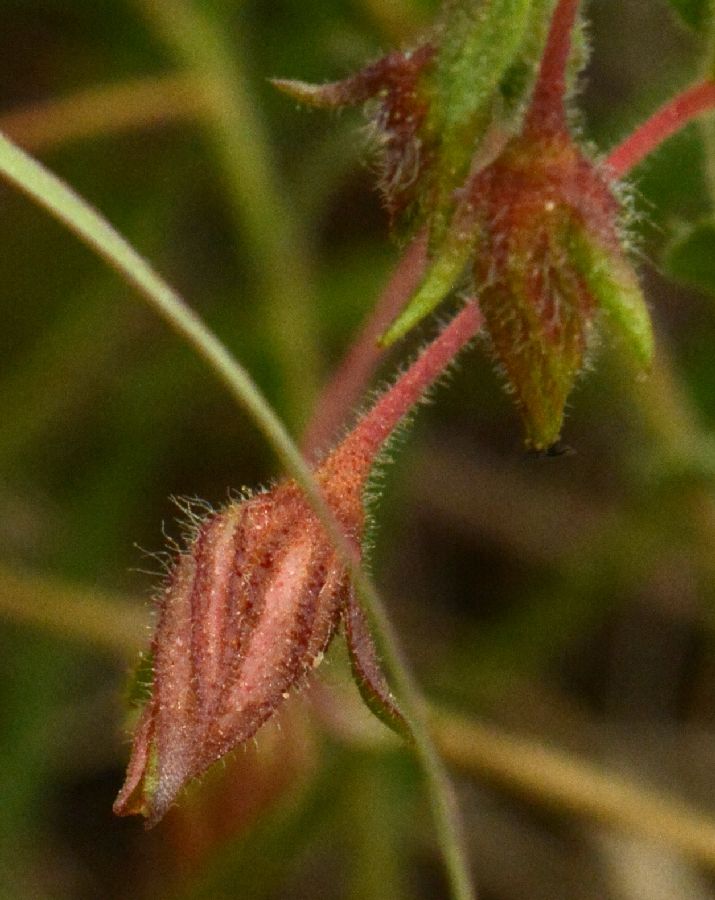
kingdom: Plantae
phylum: Tracheophyta
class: Magnoliopsida
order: Malvales
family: Cistaceae
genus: Fumana
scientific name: Fumana thymifolia
